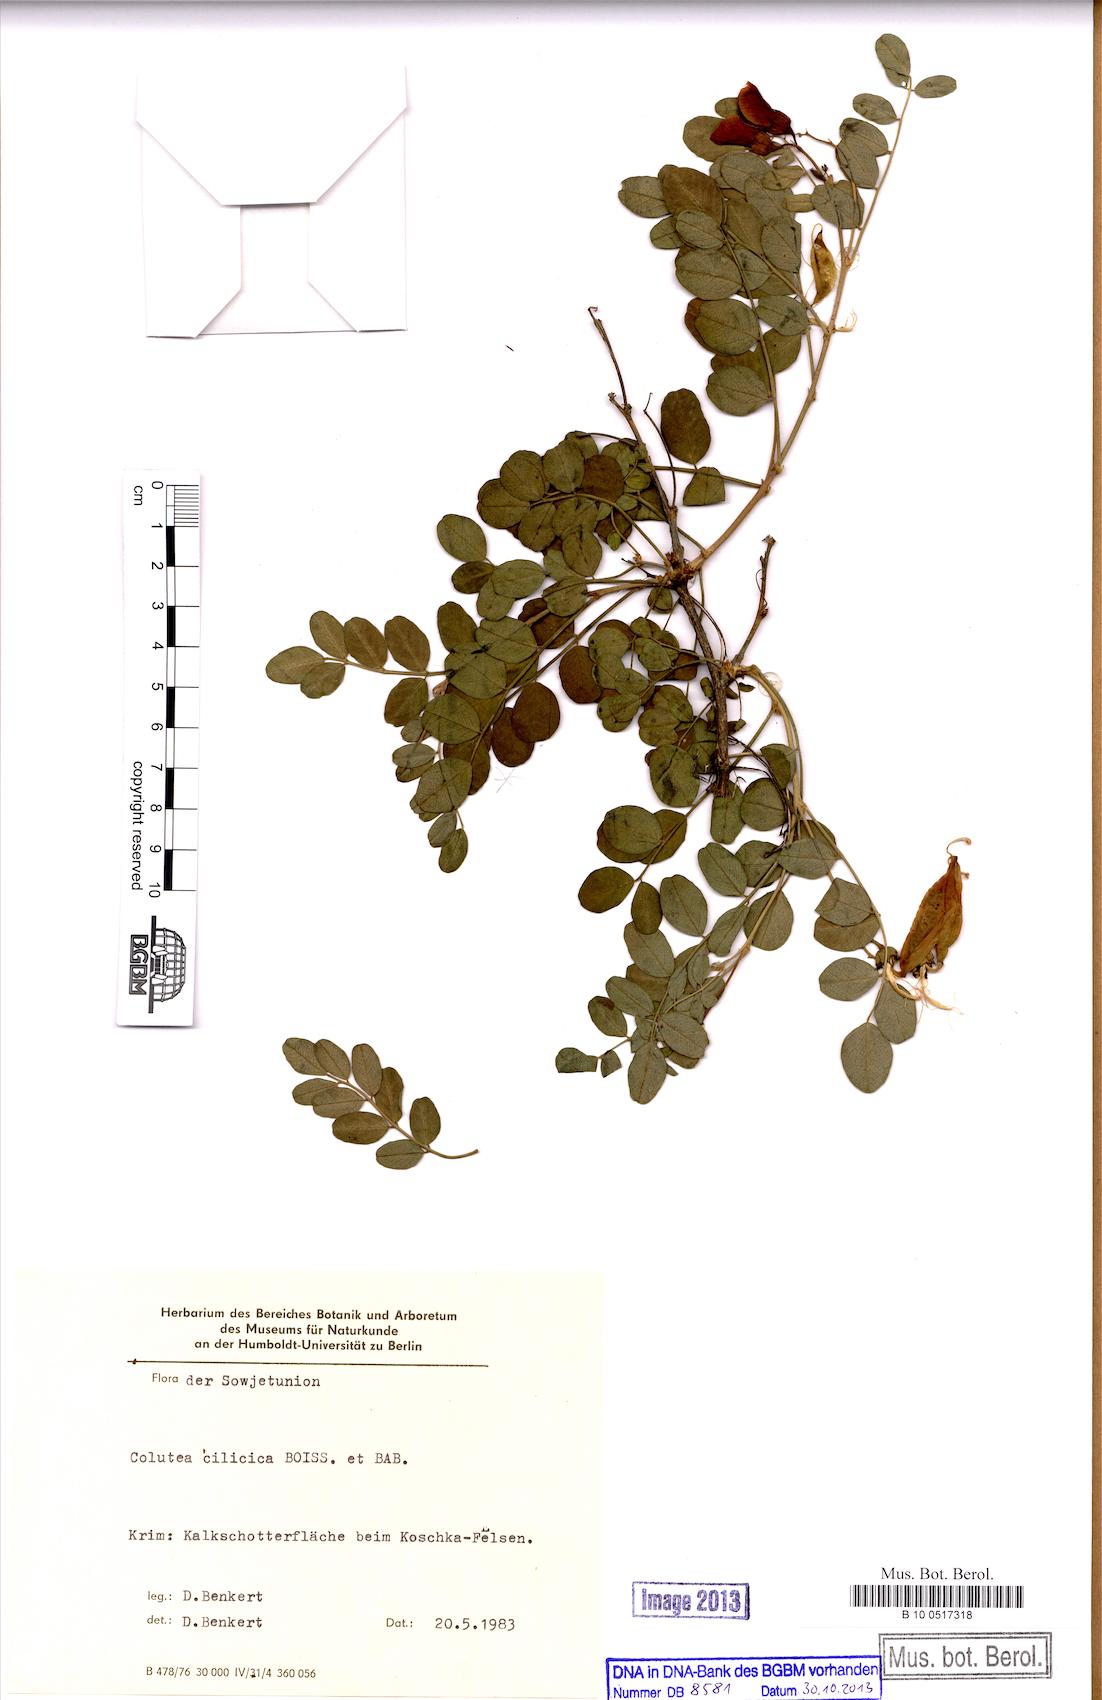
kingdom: Plantae
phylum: Tracheophyta
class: Magnoliopsida
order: Fabales
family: Fabaceae
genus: Colutea
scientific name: Colutea cilicica
